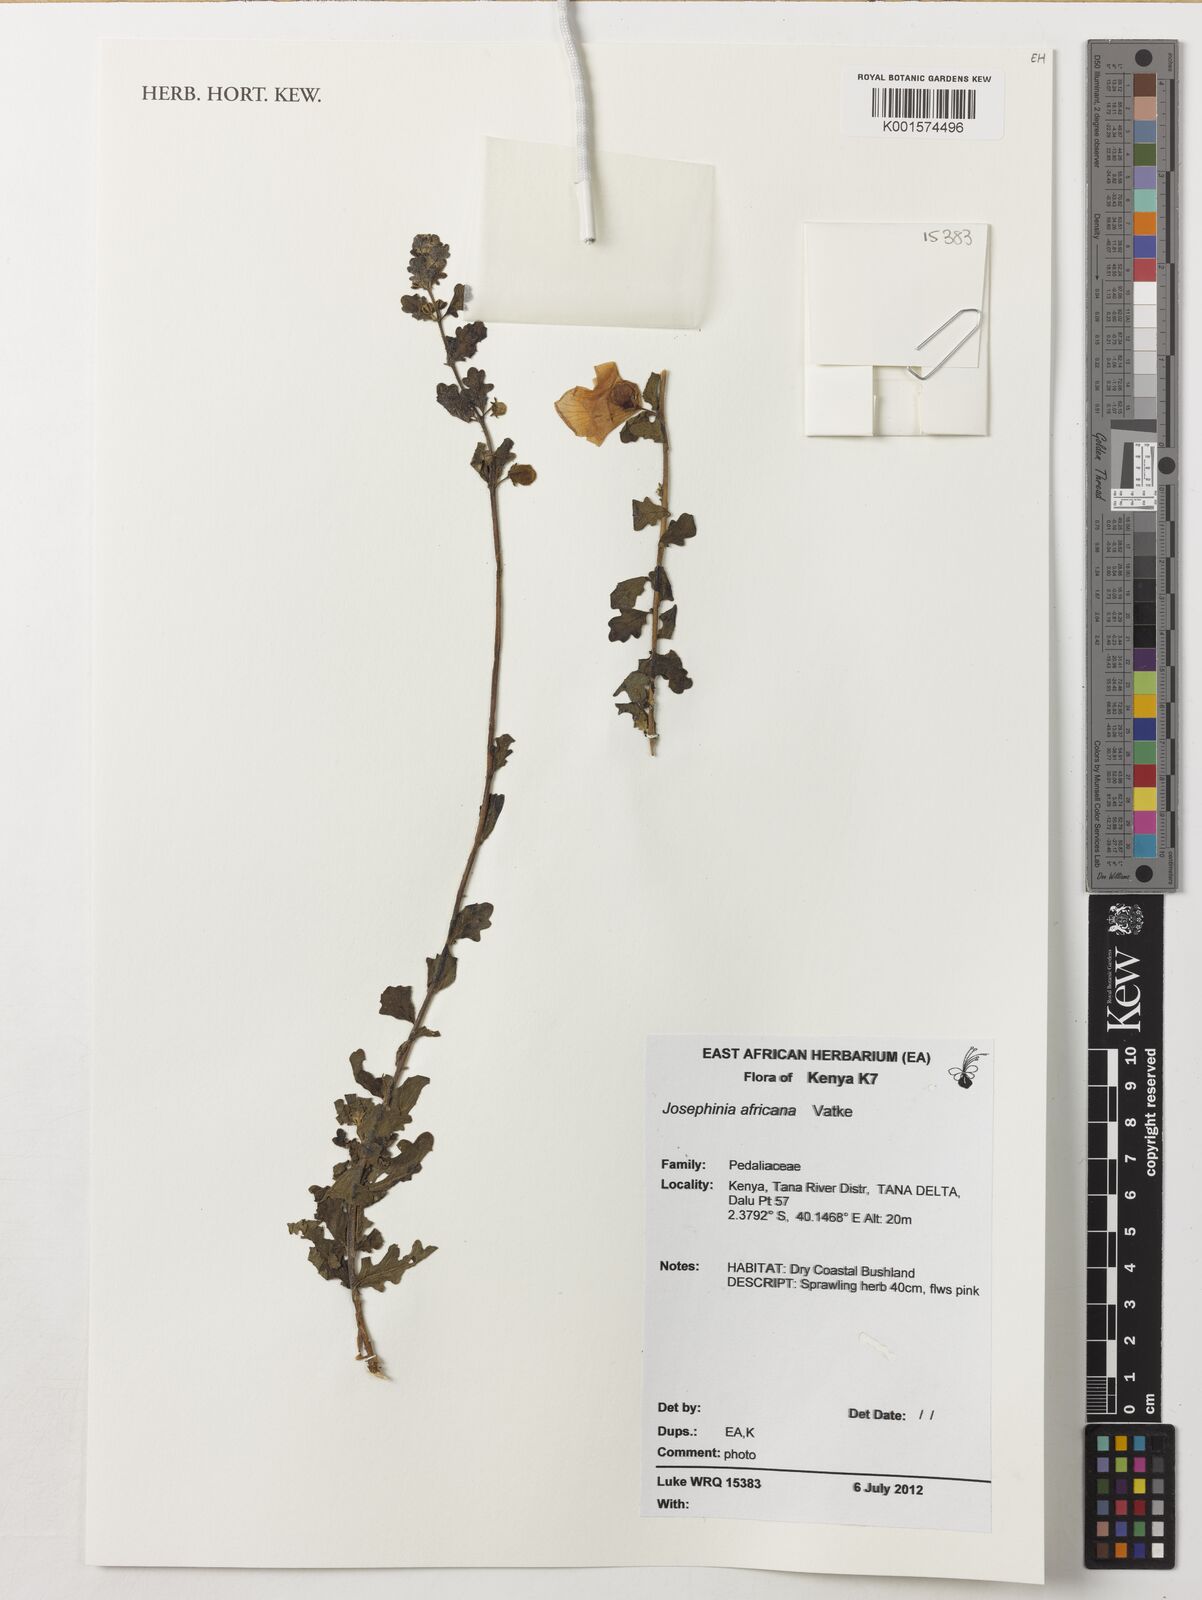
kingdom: Plantae
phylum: Tracheophyta
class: Magnoliopsida
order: Lamiales
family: Pedaliaceae
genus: Sesamum
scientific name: Sesamum rosaceum
